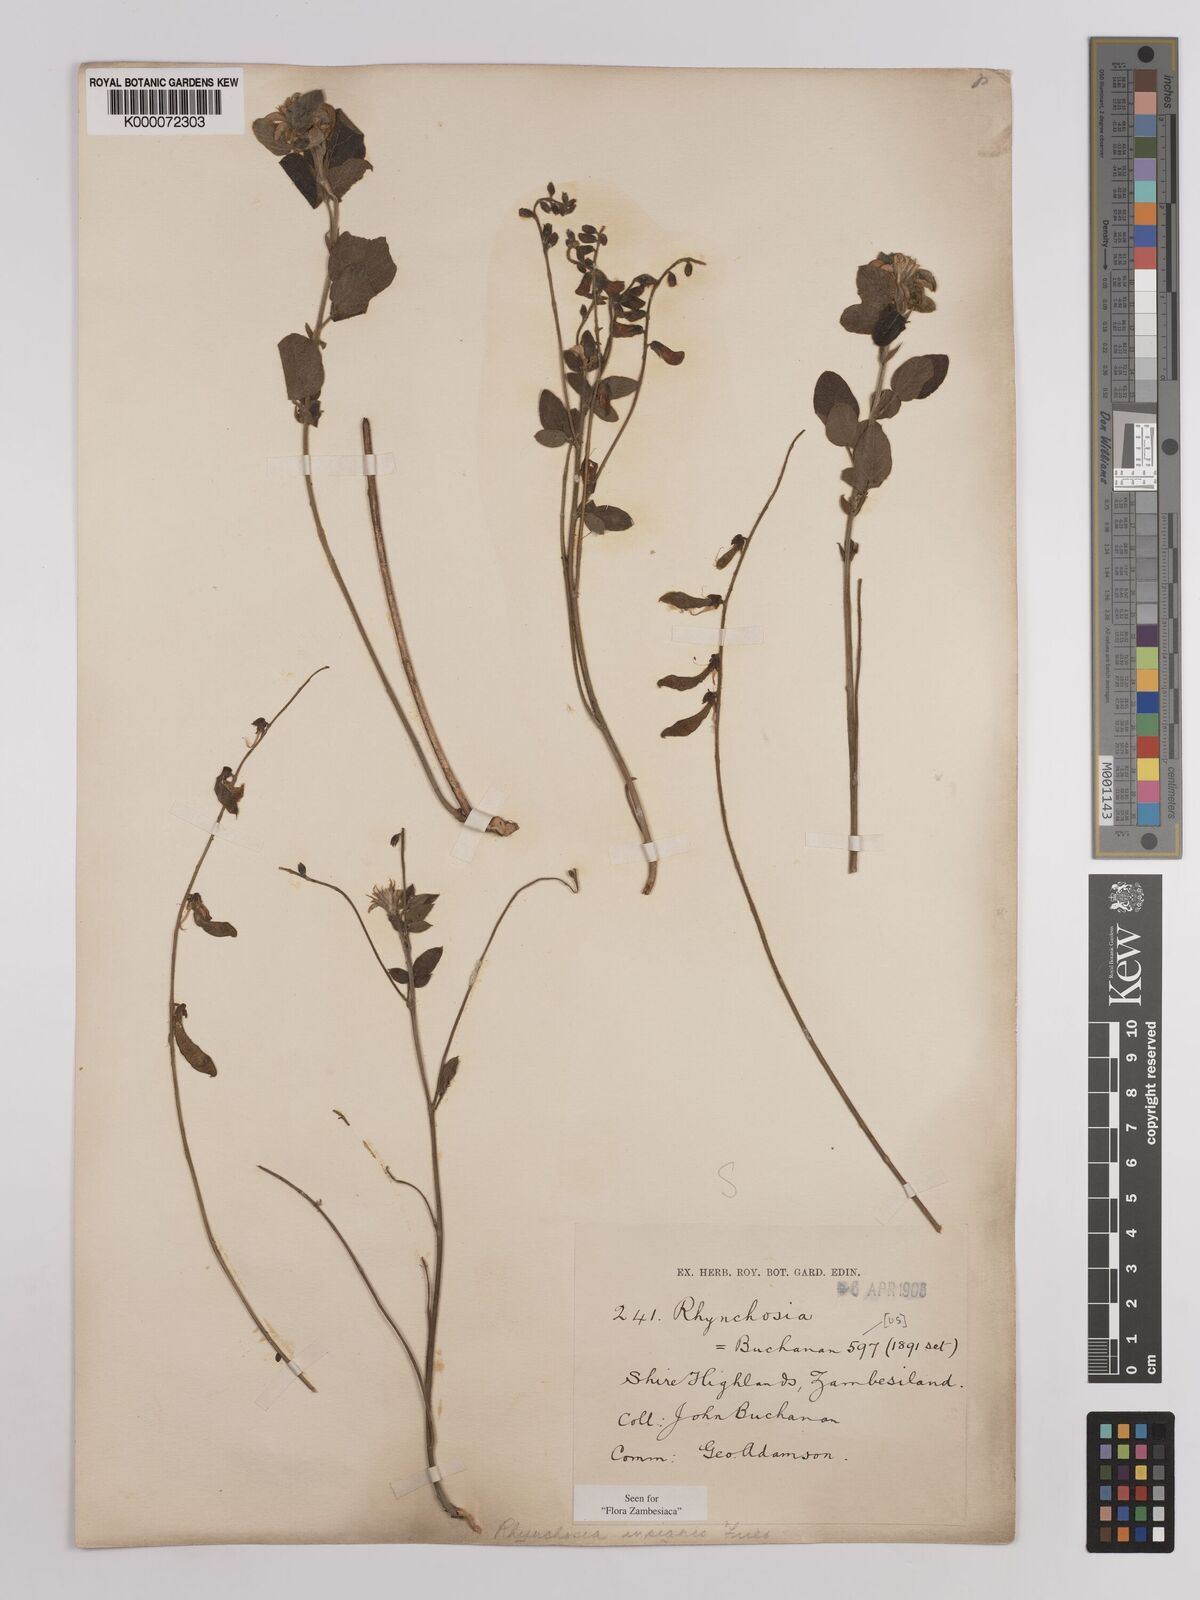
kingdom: Plantae
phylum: Tracheophyta
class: Magnoliopsida
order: Fabales
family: Fabaceae
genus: Rhynchosia
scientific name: Rhynchosia insignis
